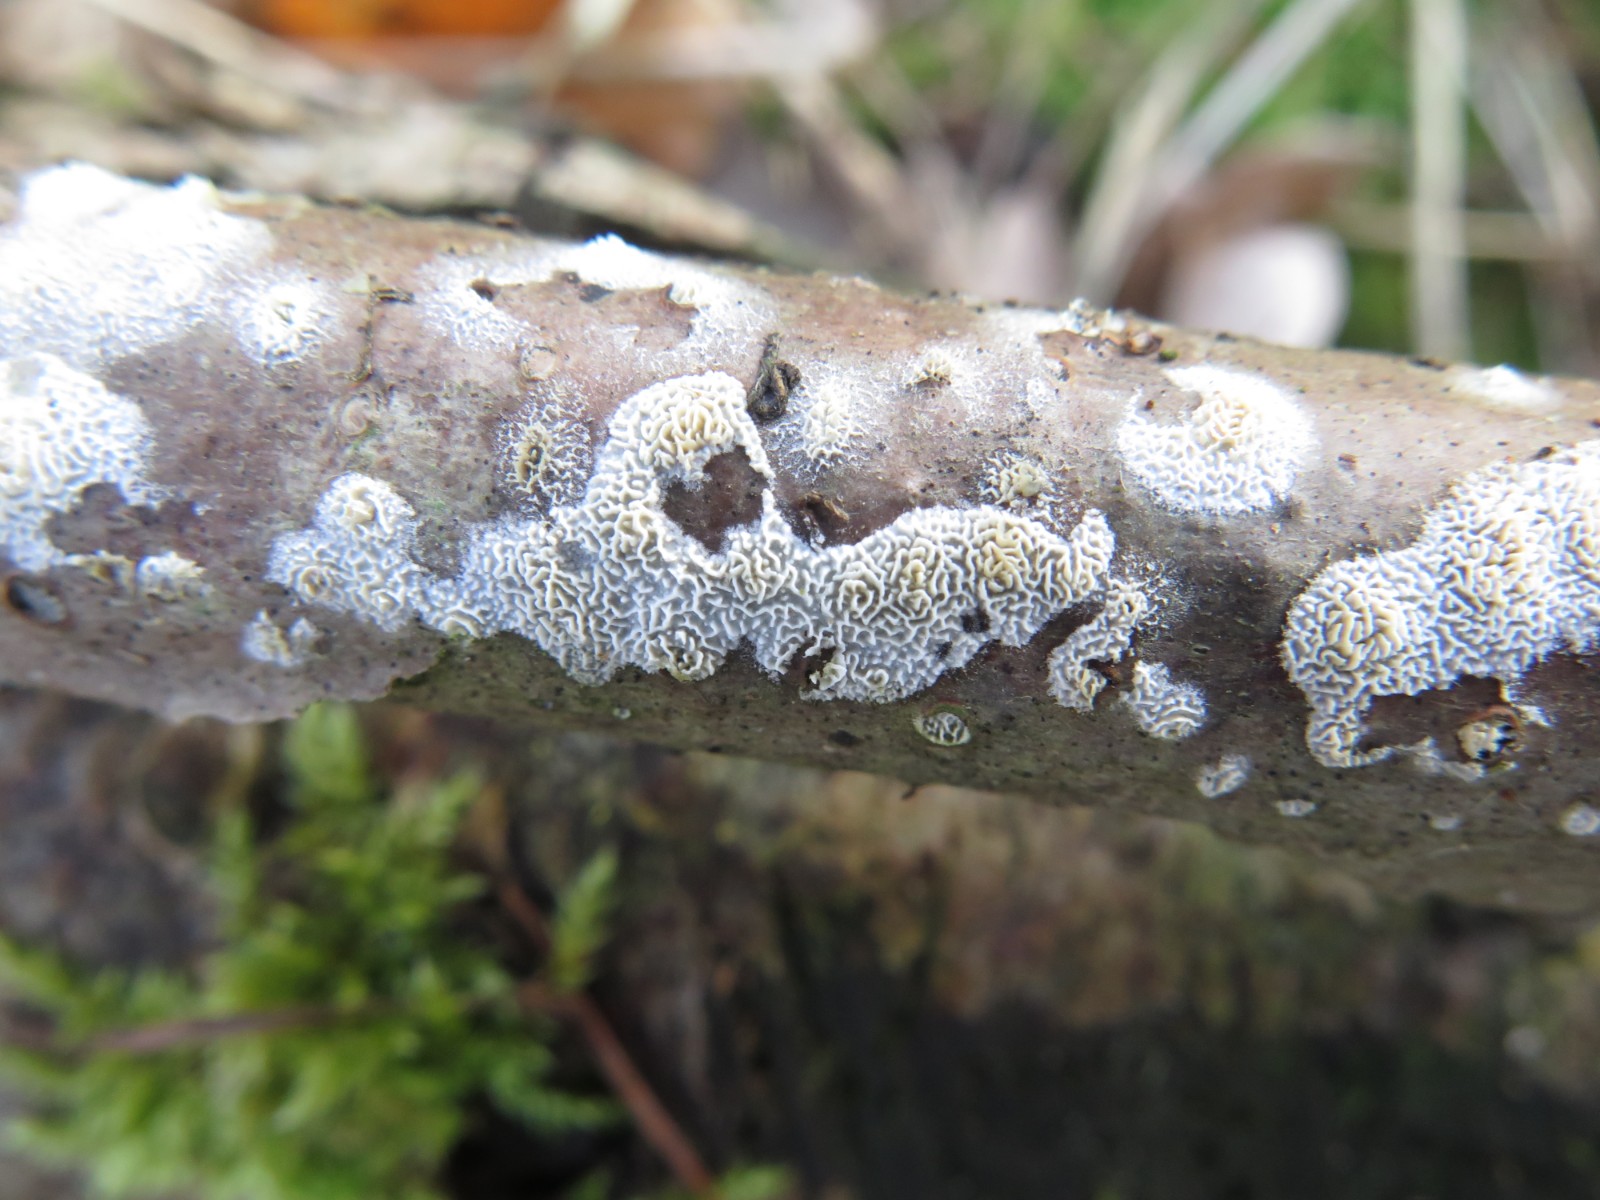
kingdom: Fungi
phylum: Basidiomycota
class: Agaricomycetes
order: Hymenochaetales
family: Schizoporaceae
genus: Xylodon
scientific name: Xylodon subtropicus
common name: labyrint-tandsvamp
